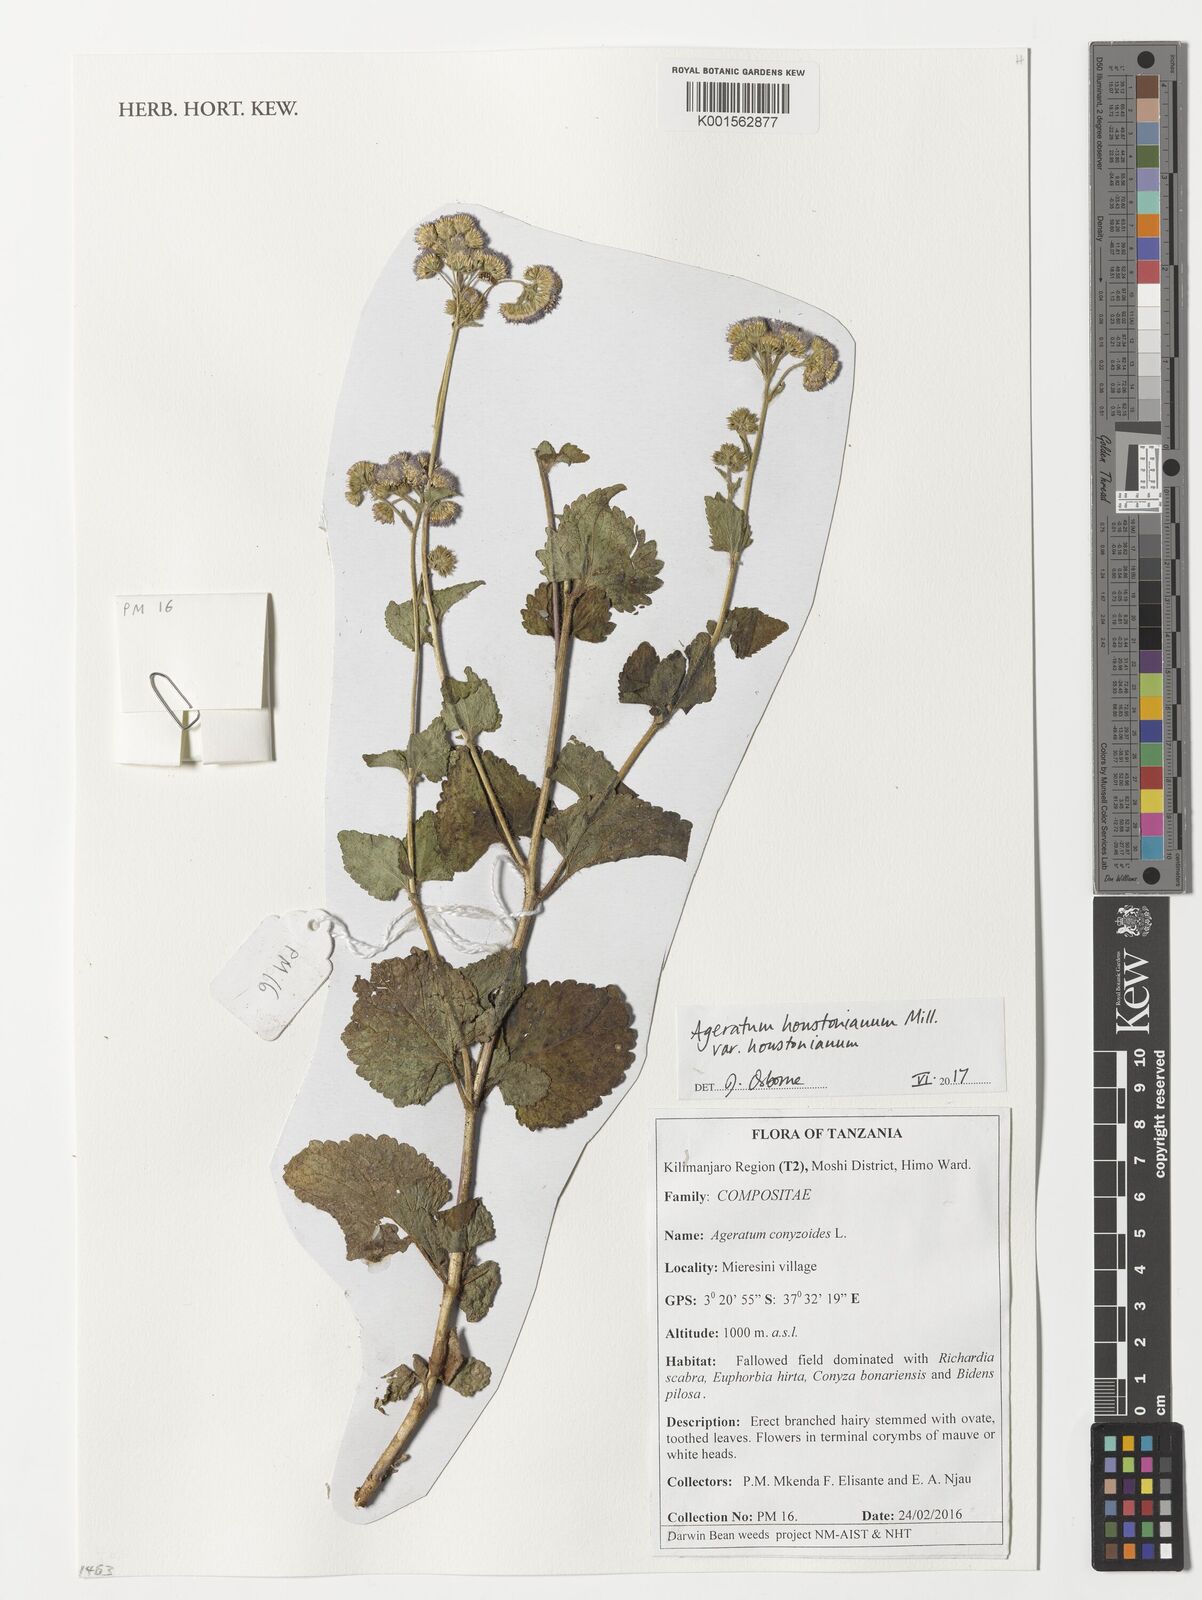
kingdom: Plantae
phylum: Tracheophyta
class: Magnoliopsida
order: Asterales
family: Asteraceae
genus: Ageratum
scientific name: Ageratum houstonianum
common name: Bluemink
